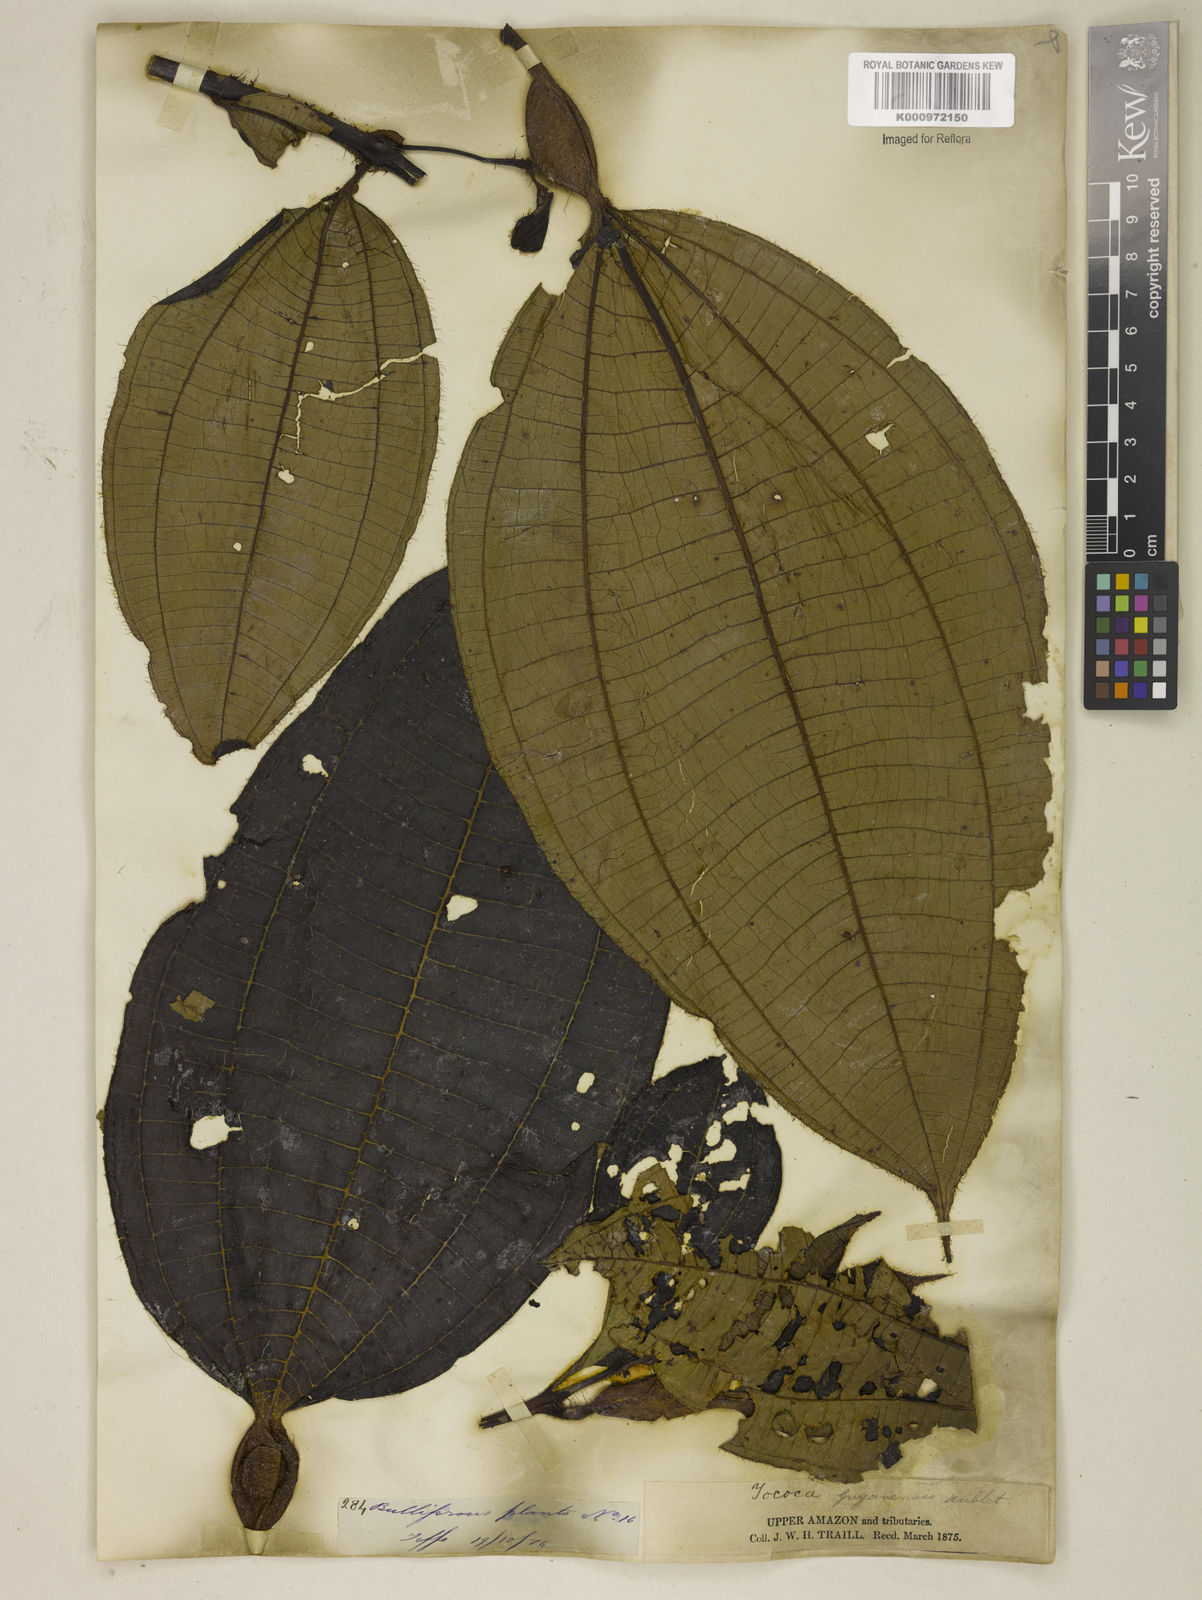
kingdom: Plantae
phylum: Tracheophyta
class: Magnoliopsida
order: Myrtales
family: Melastomataceae
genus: Miconia
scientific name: Miconia tococa
